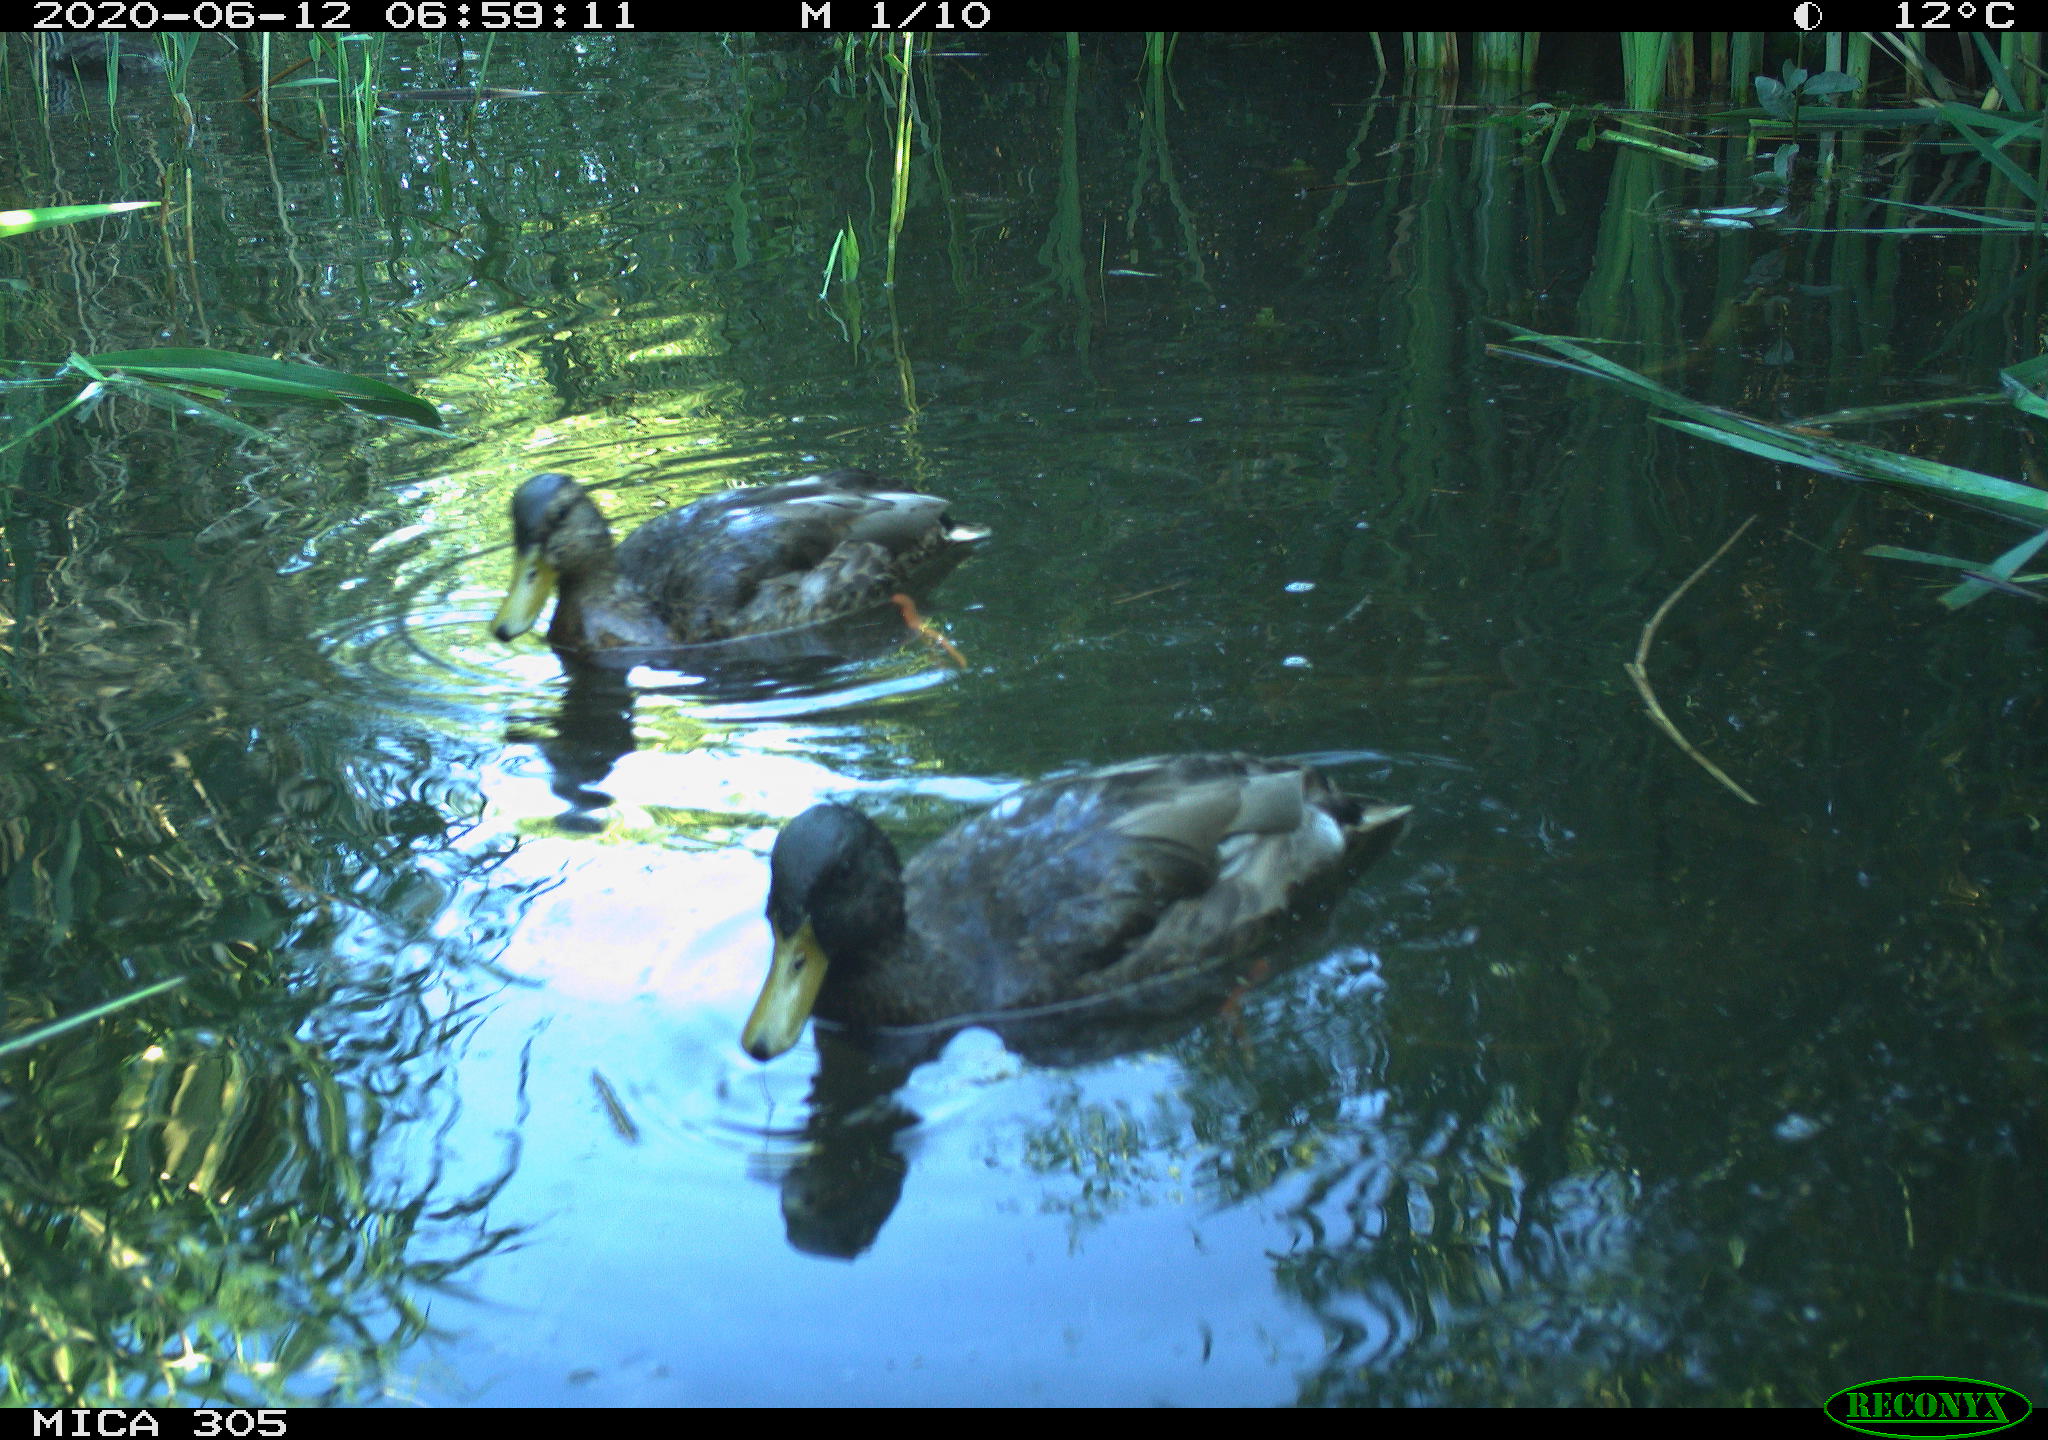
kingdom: Animalia
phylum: Chordata
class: Aves
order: Anseriformes
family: Anatidae
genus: Anas
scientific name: Anas platyrhynchos
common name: Mallard
